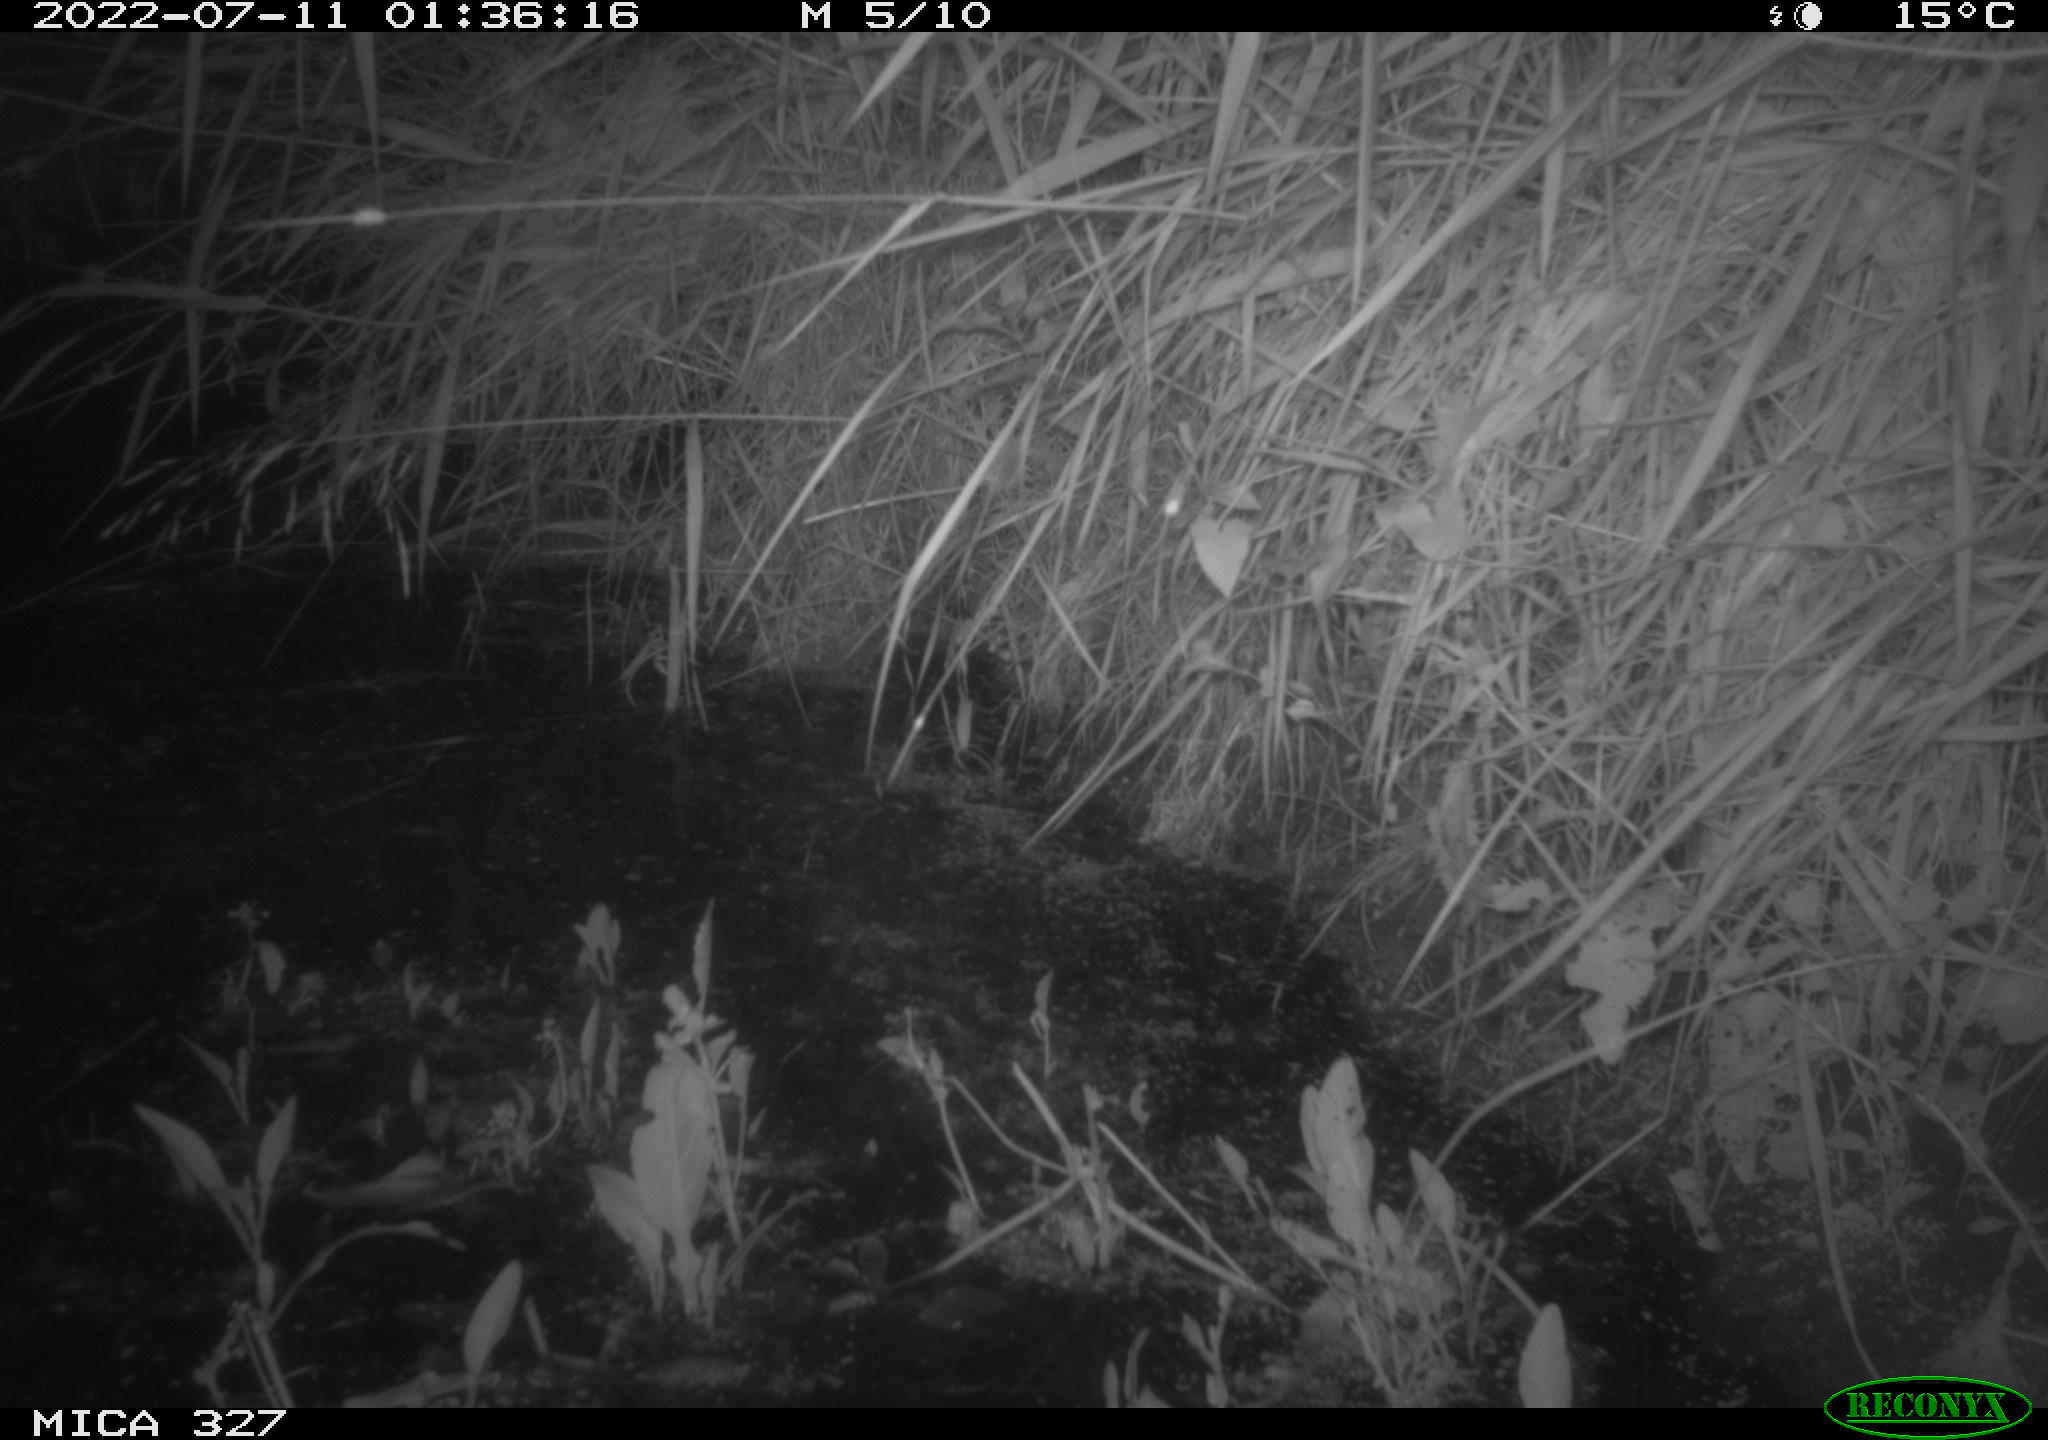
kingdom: Animalia
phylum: Chordata
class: Mammalia
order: Rodentia
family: Muridae
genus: Rattus
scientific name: Rattus norvegicus
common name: Brown rat
